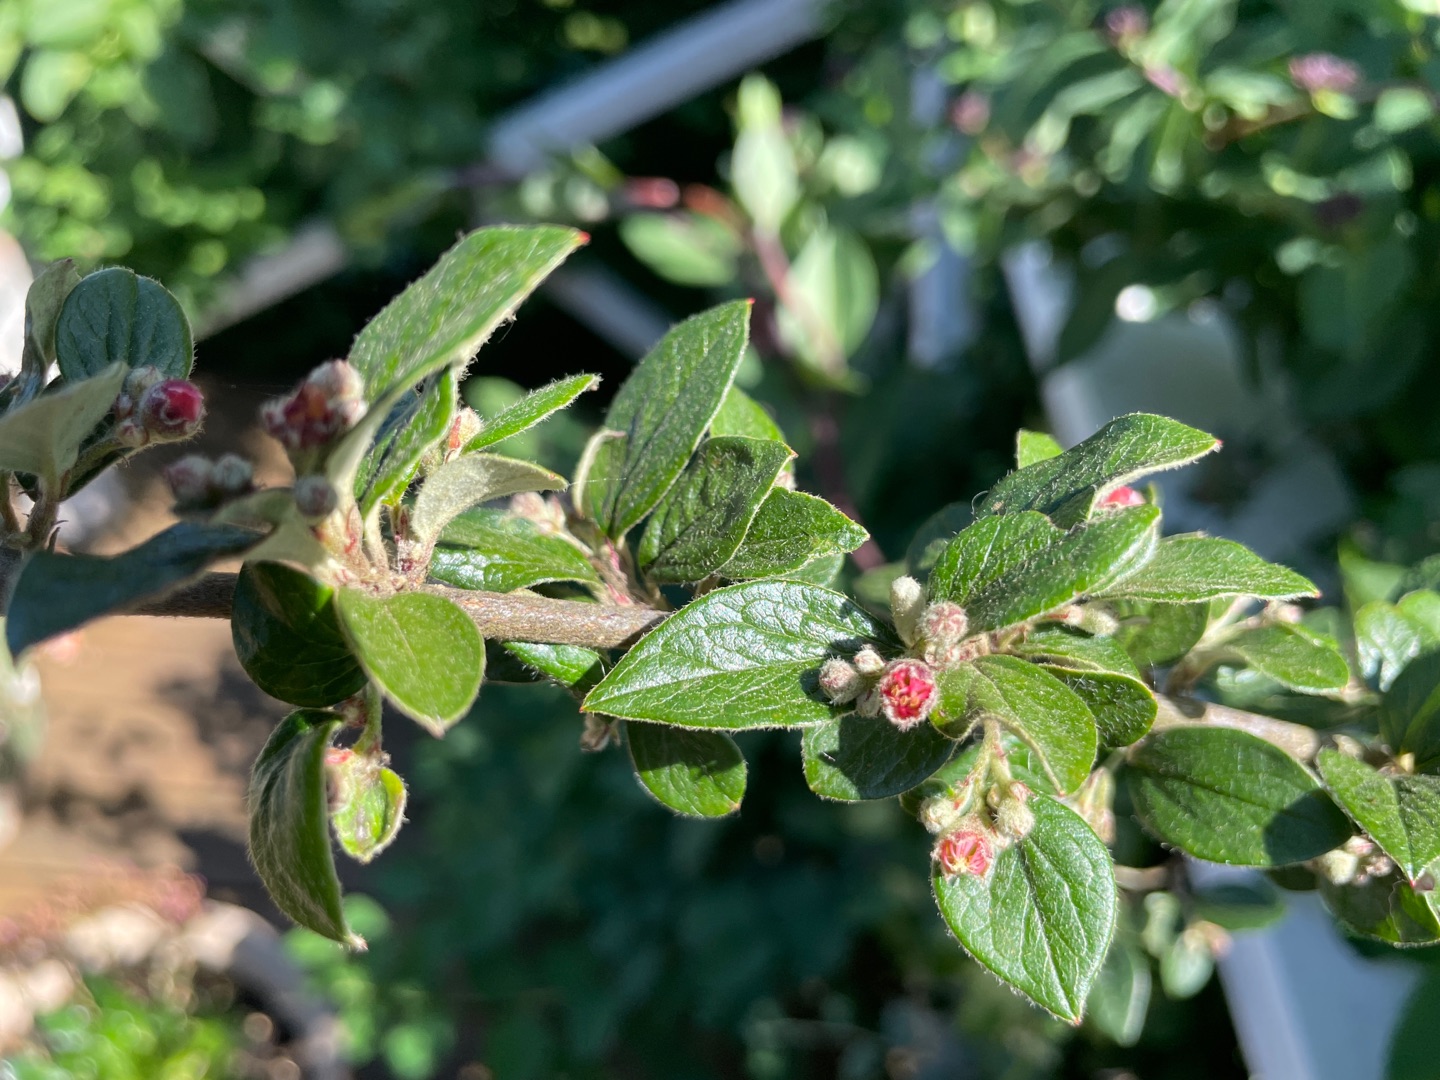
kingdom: Plantae
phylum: Tracheophyta
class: Magnoliopsida
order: Rosales
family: Rosaceae
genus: Cotoneaster
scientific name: Cotoneaster dielsianus
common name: Kinesisk dværgmispel
